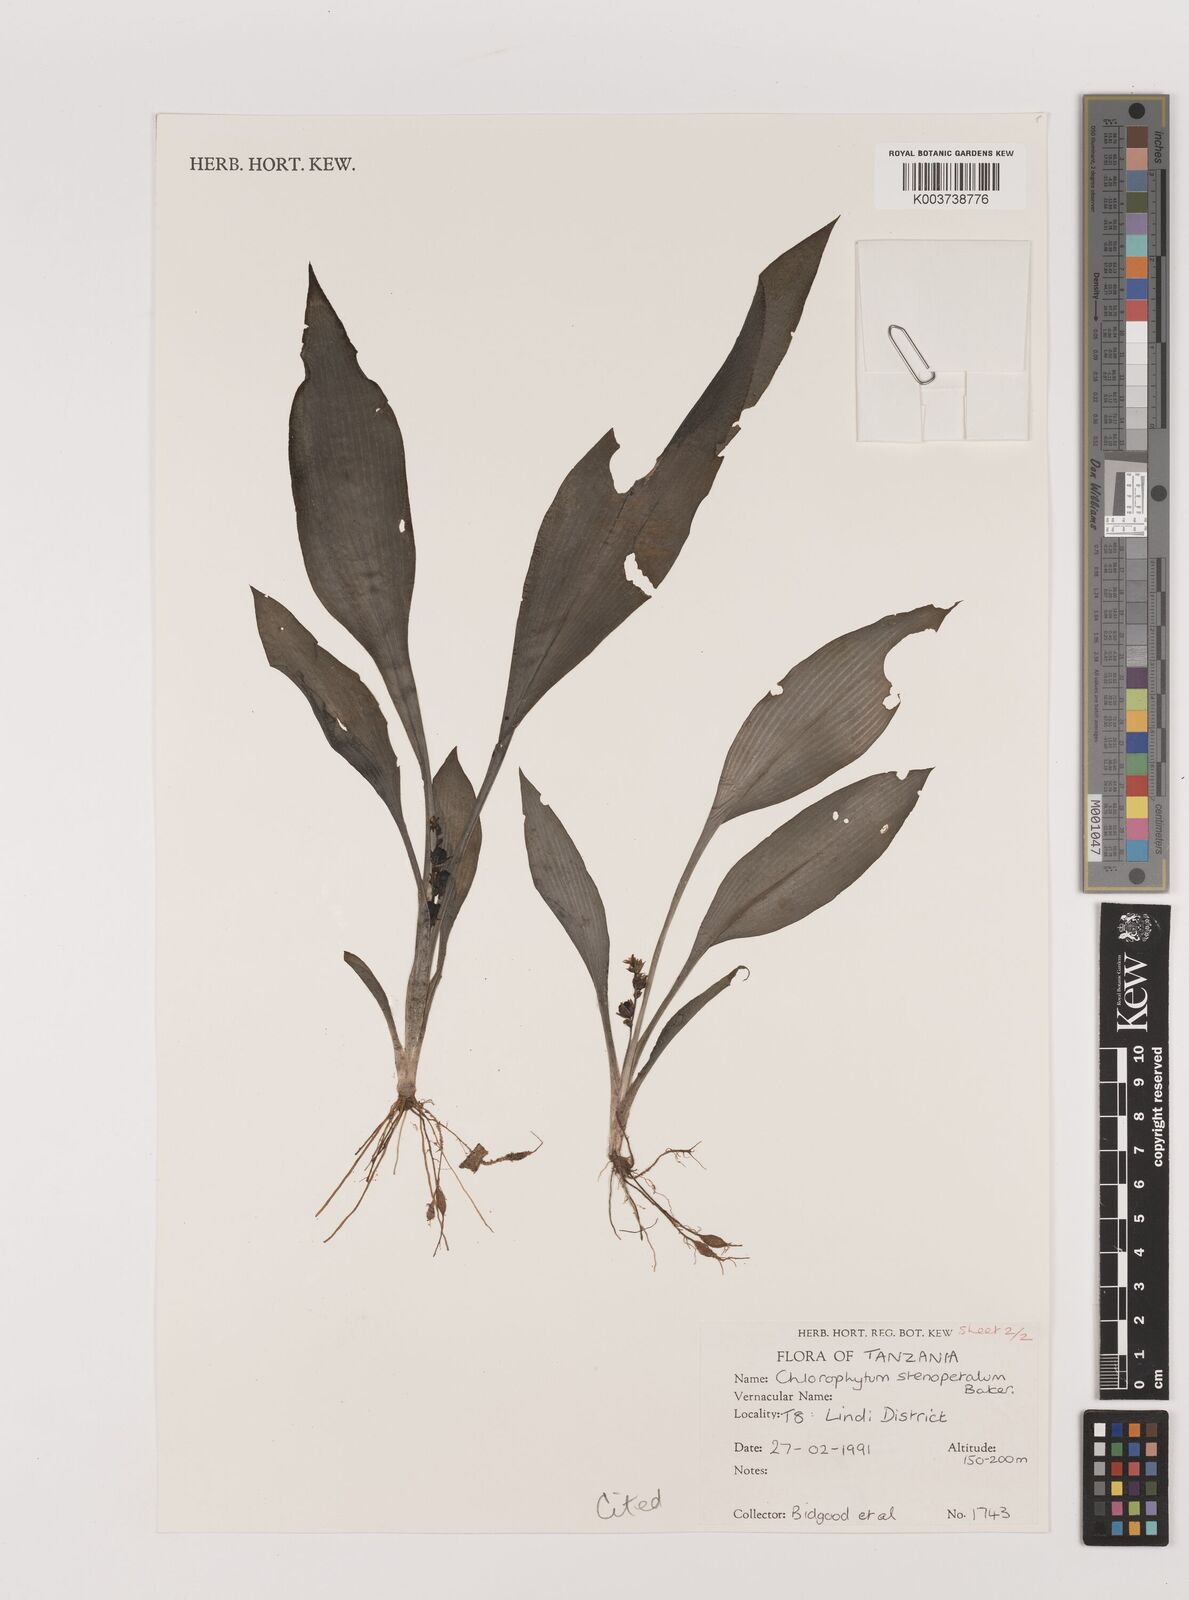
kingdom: Plantae
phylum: Tracheophyta
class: Liliopsida
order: Asparagales
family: Asparagaceae
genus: Chlorophytum
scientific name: Chlorophytum stenopetalum
